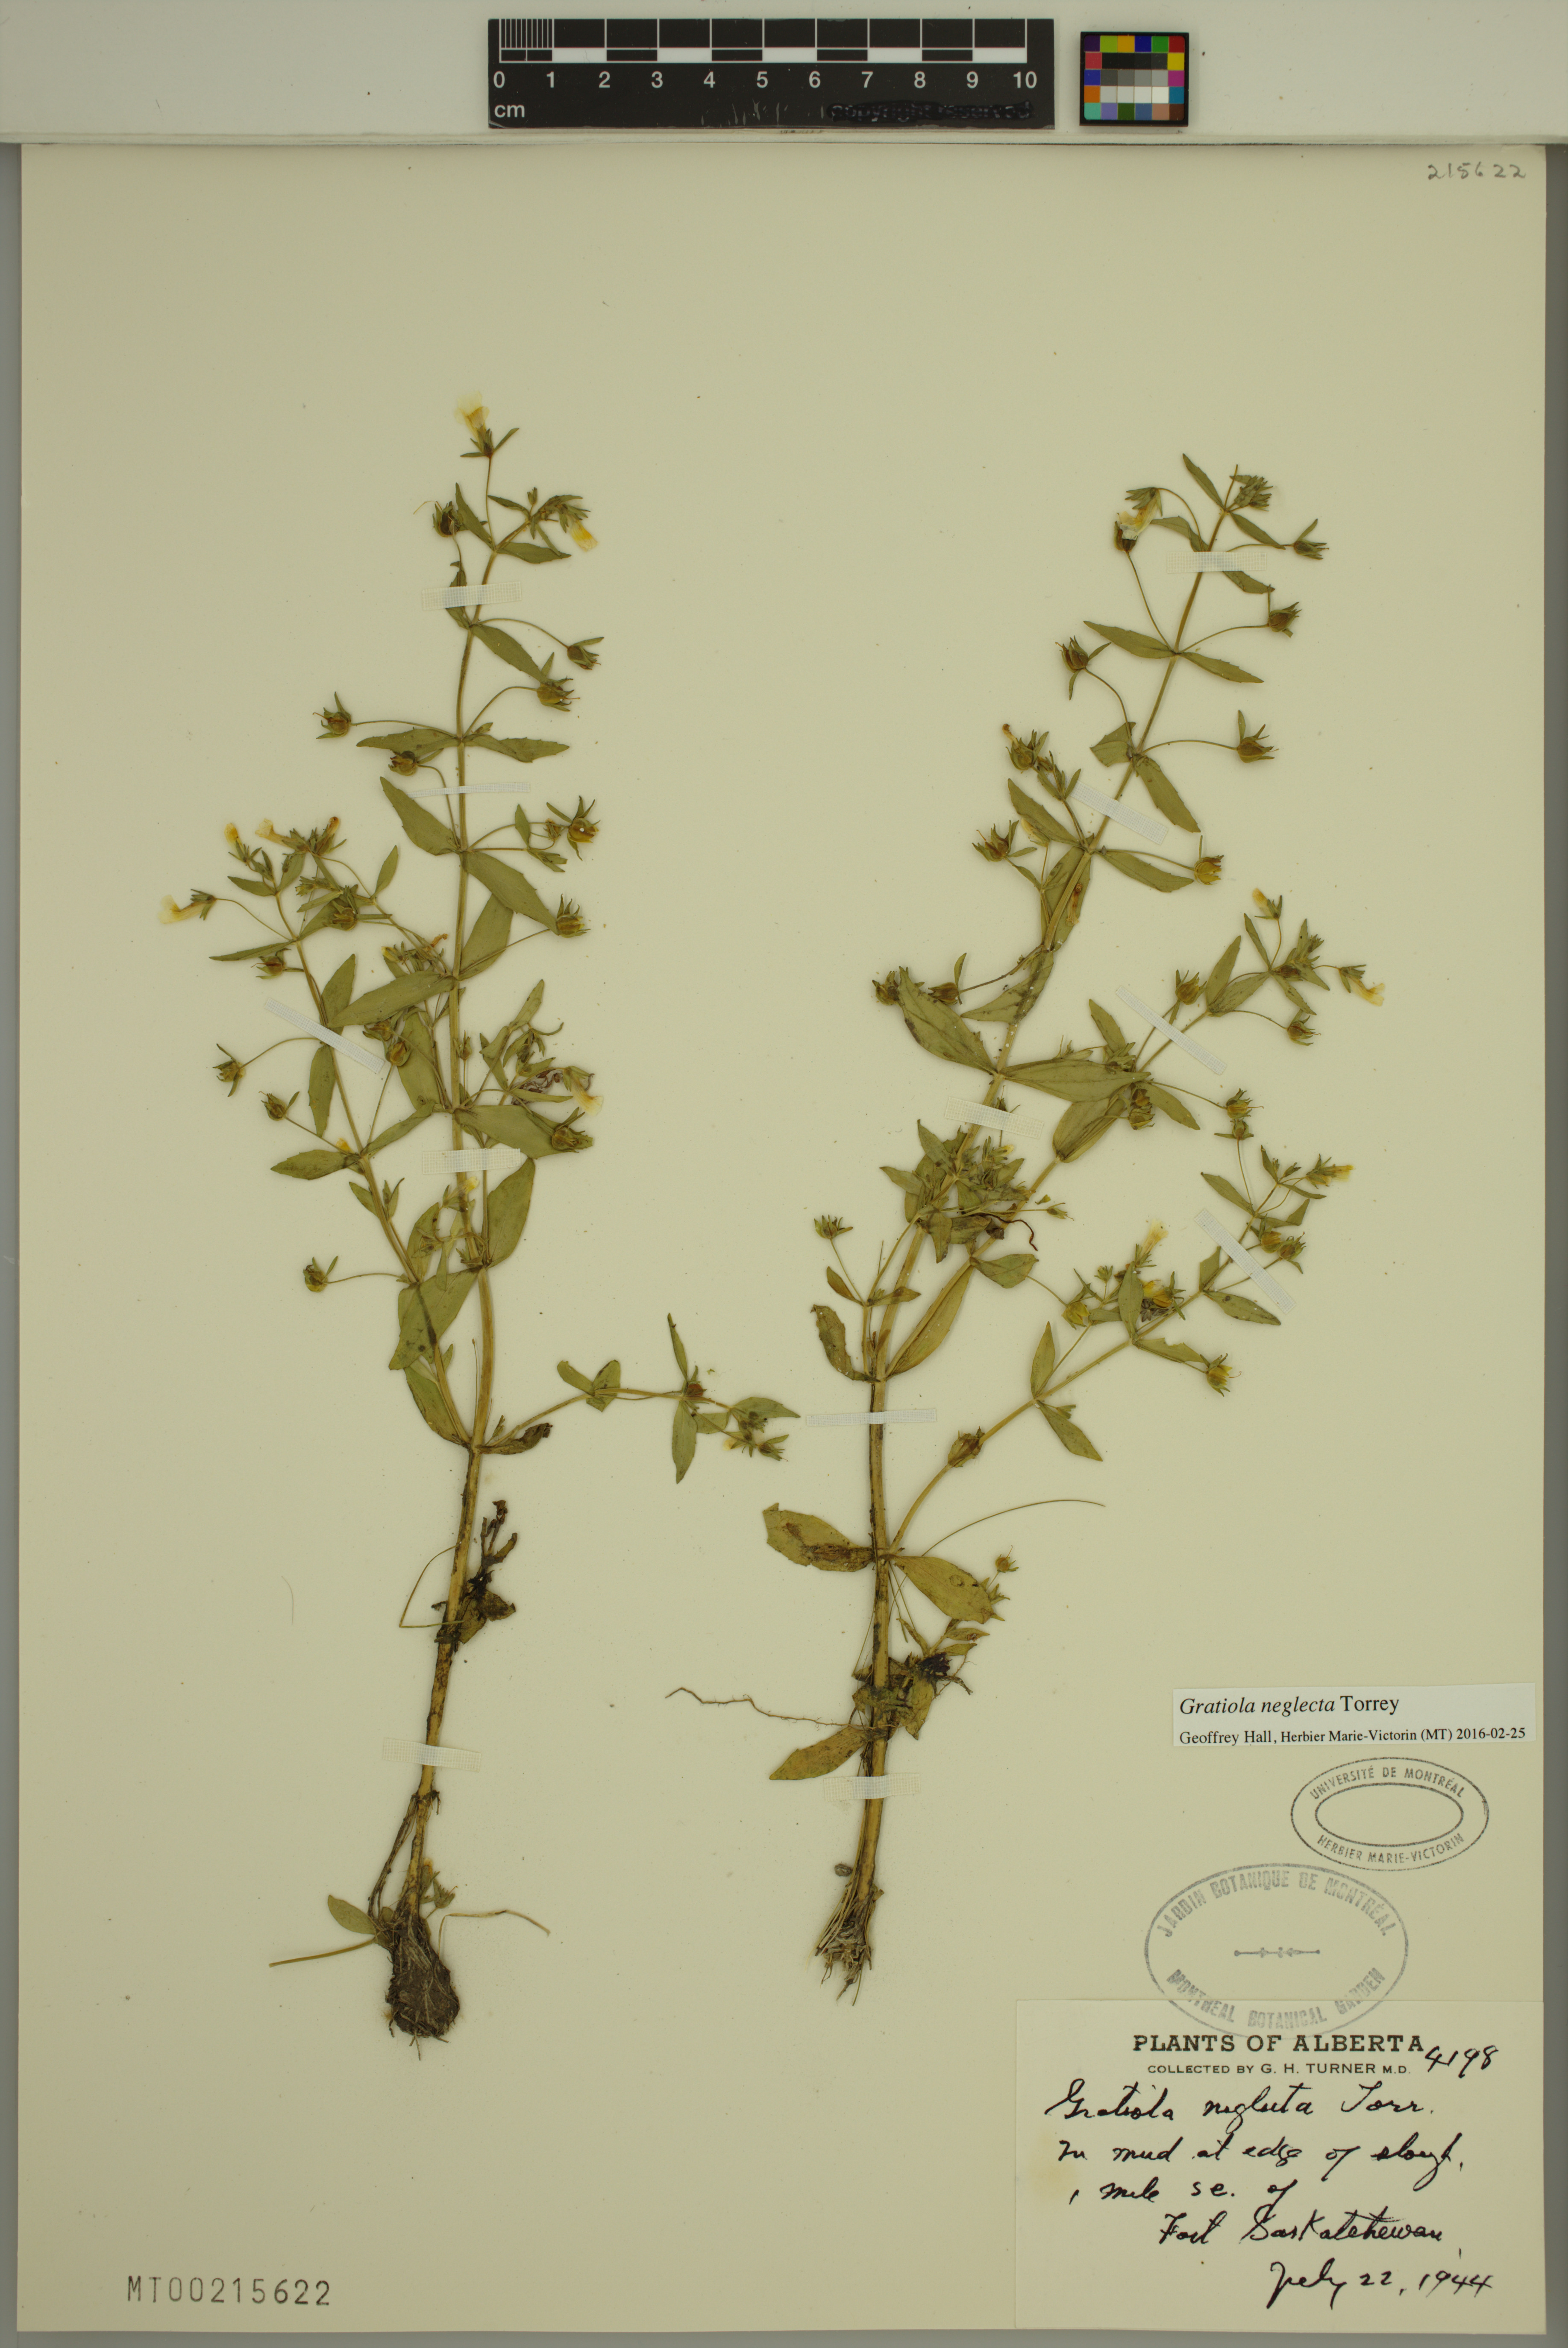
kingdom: Plantae
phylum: Tracheophyta
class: Magnoliopsida
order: Lamiales
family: Plantaginaceae
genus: Gratiola
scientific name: Gratiola neglecta
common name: American hedge-hyssop
